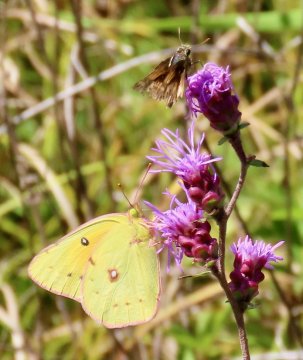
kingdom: Animalia
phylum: Arthropoda
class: Insecta
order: Lepidoptera
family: Pieridae
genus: Colias
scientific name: Colias eurytheme
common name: Orange Sulphur
